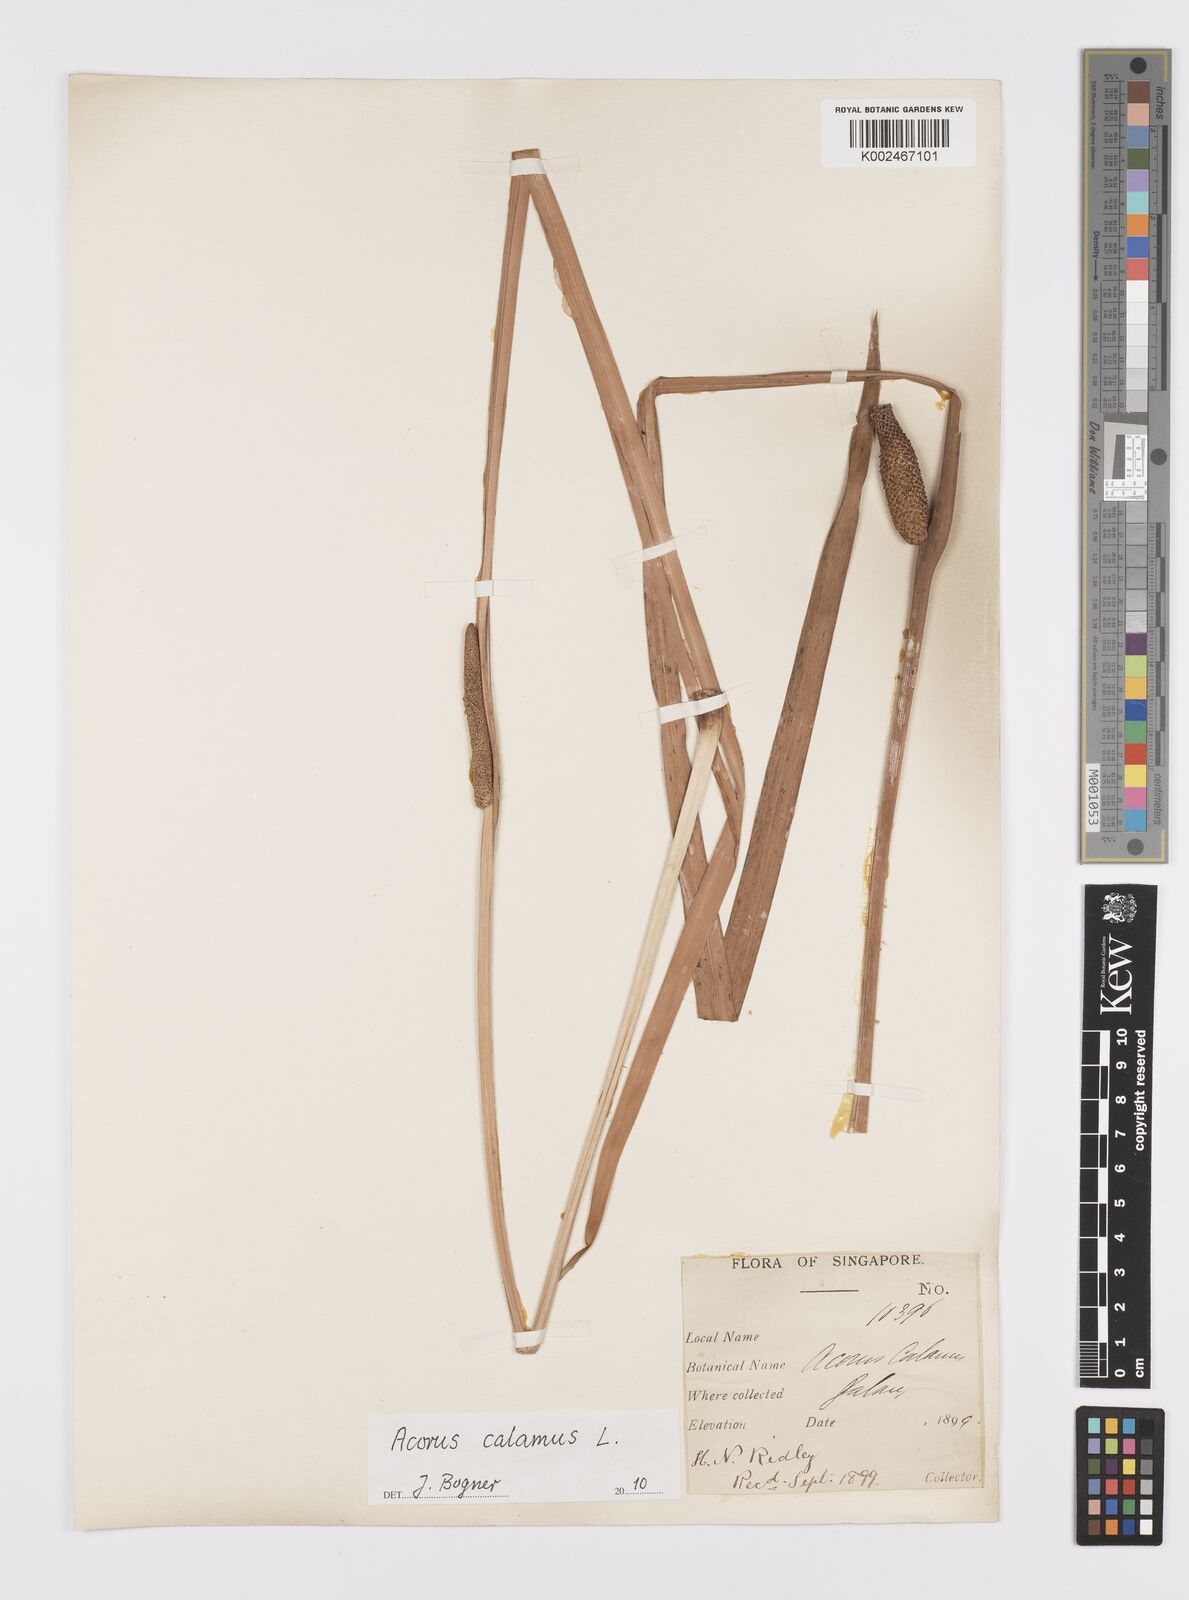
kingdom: Plantae
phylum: Tracheophyta
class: Liliopsida
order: Acorales
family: Acoraceae
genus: Acorus
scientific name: Acorus calamus
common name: Sweet-flag
